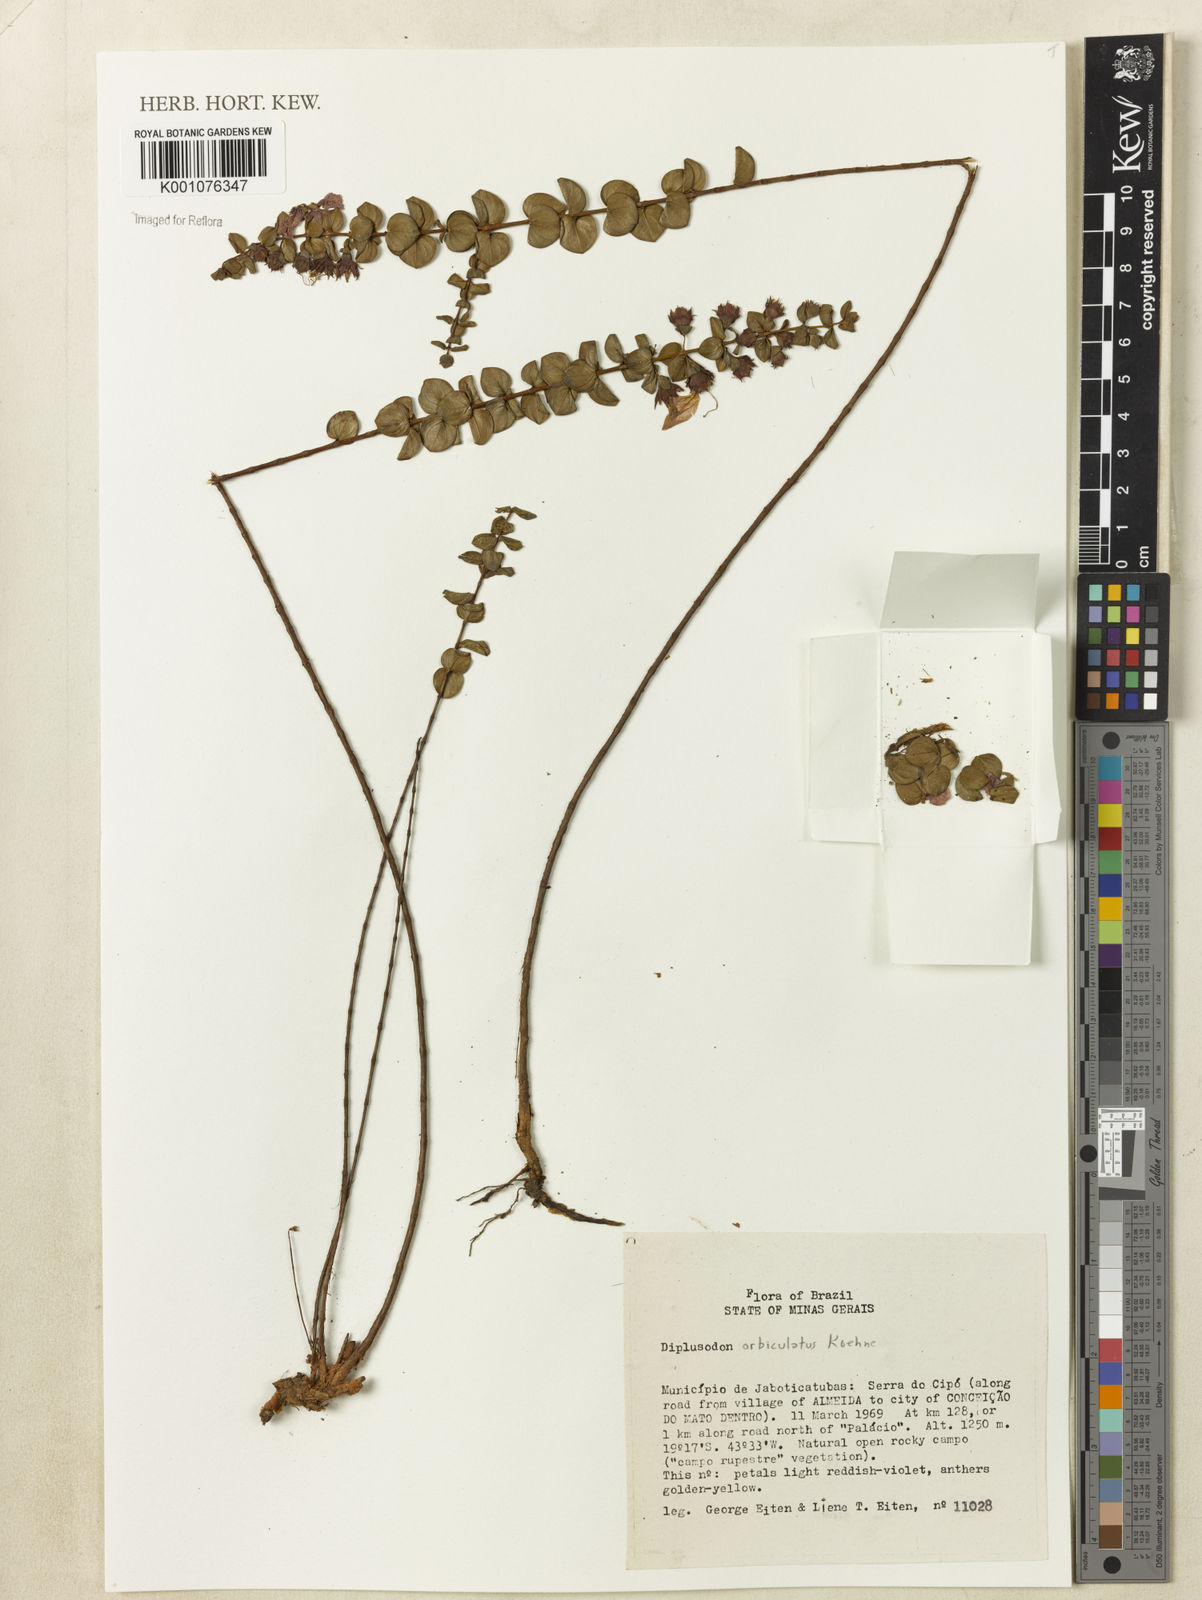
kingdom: Plantae
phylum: Tracheophyta
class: Magnoliopsida
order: Myrtales
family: Lythraceae
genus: Diplusodon
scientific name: Diplusodon orbicularis
